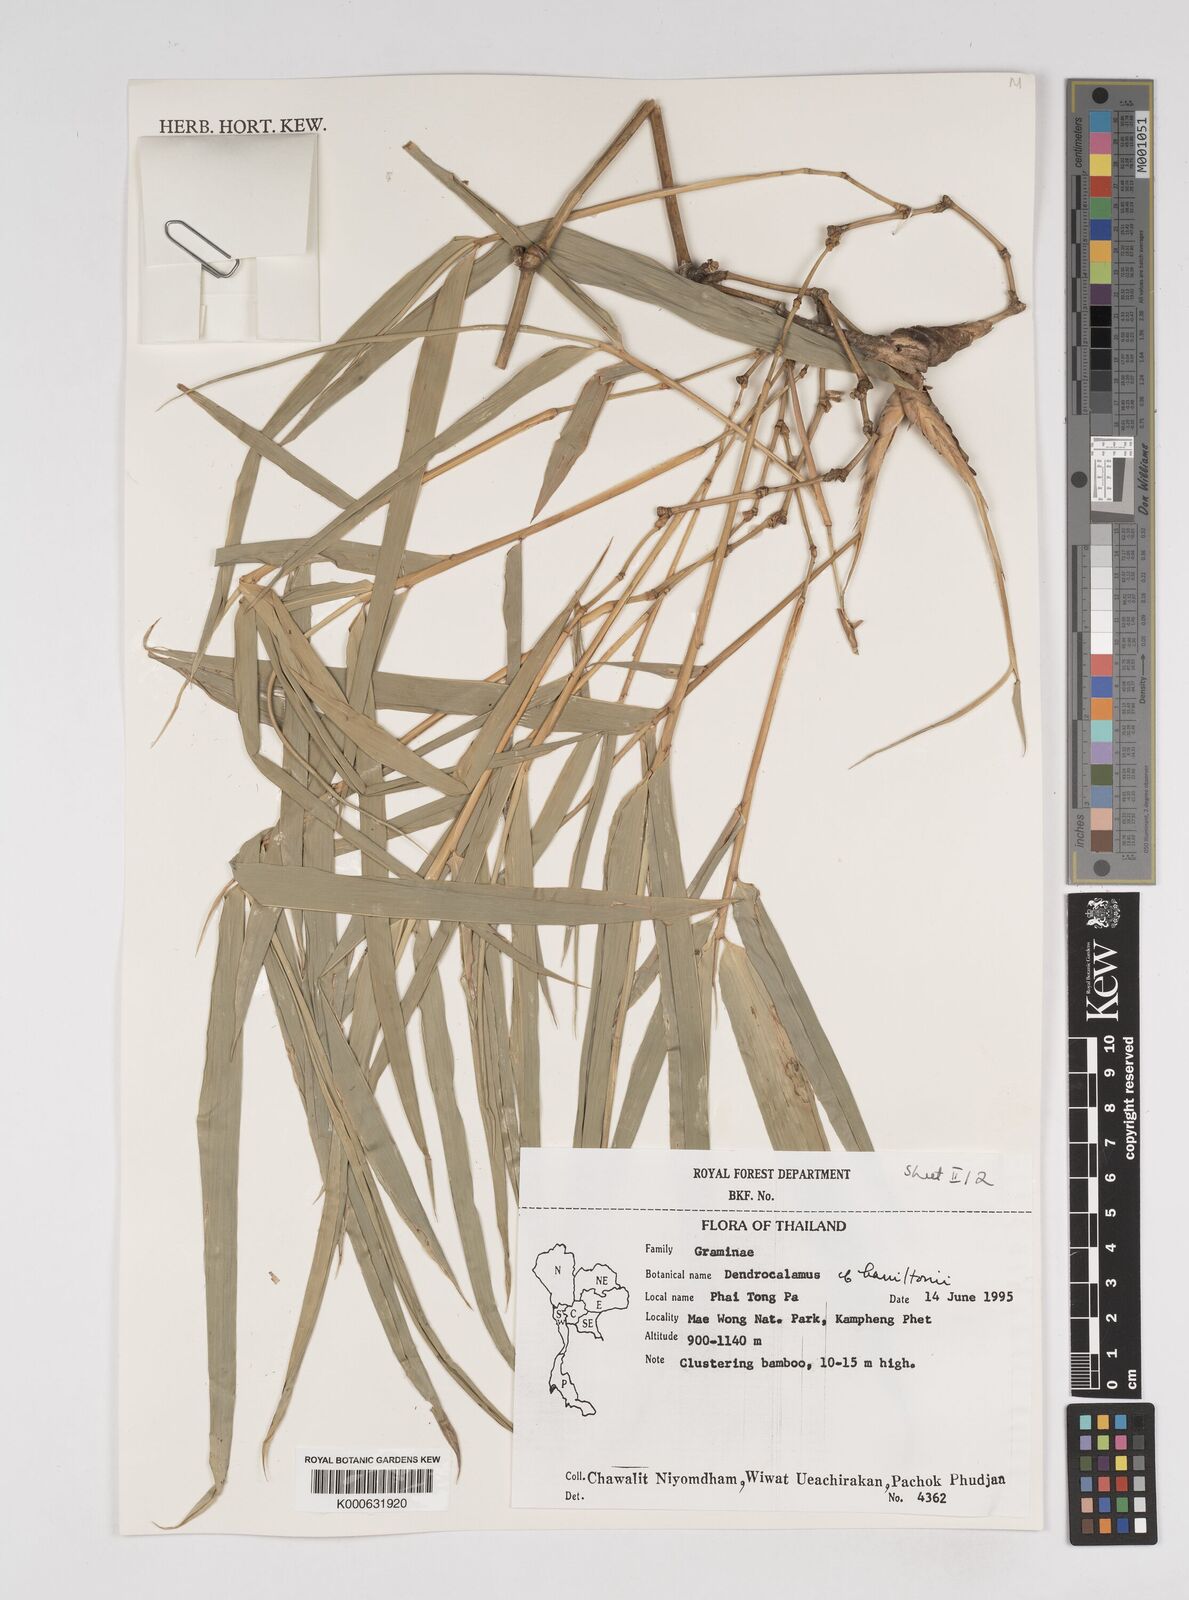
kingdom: Plantae
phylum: Tracheophyta
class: Liliopsida
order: Poales
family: Poaceae
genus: Dendrocalamus
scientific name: Dendrocalamus brandisii
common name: Velvetleaf bamboo
